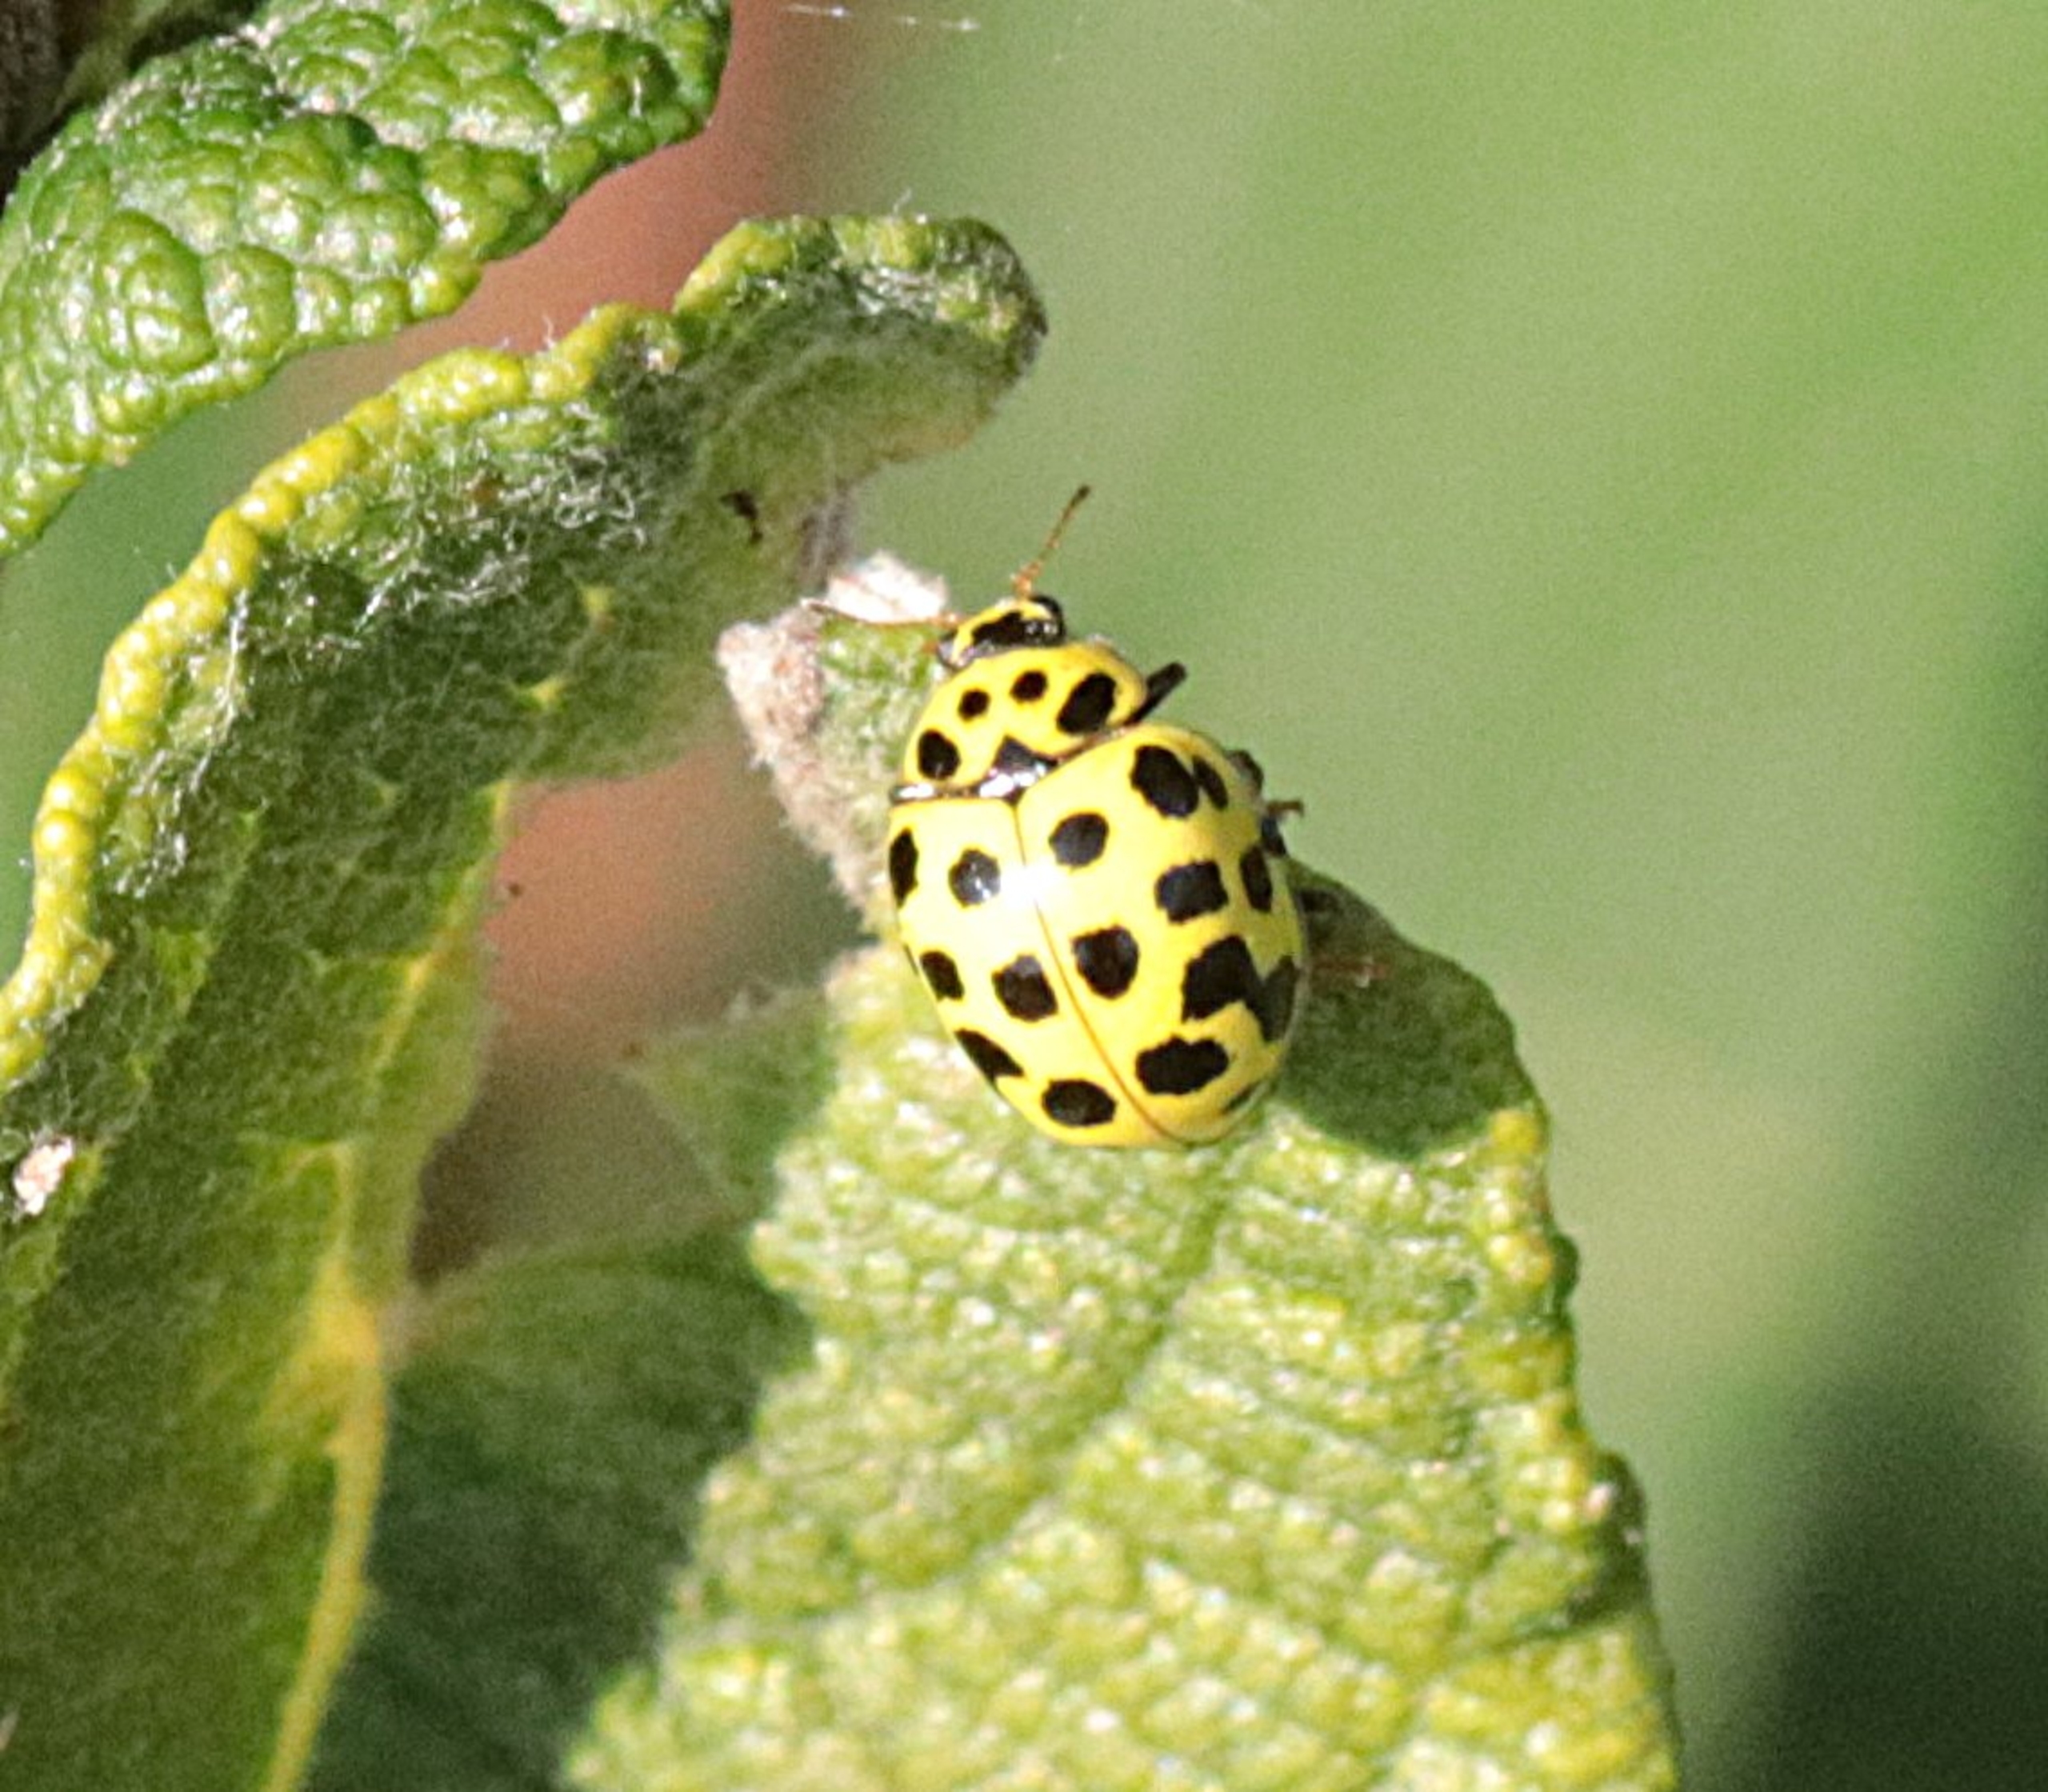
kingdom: Animalia
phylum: Arthropoda
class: Insecta
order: Coleoptera
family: Coccinellidae
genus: Psyllobora
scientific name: Psyllobora vigintiduopunctata
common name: Toogtyveplettet mariehøne
